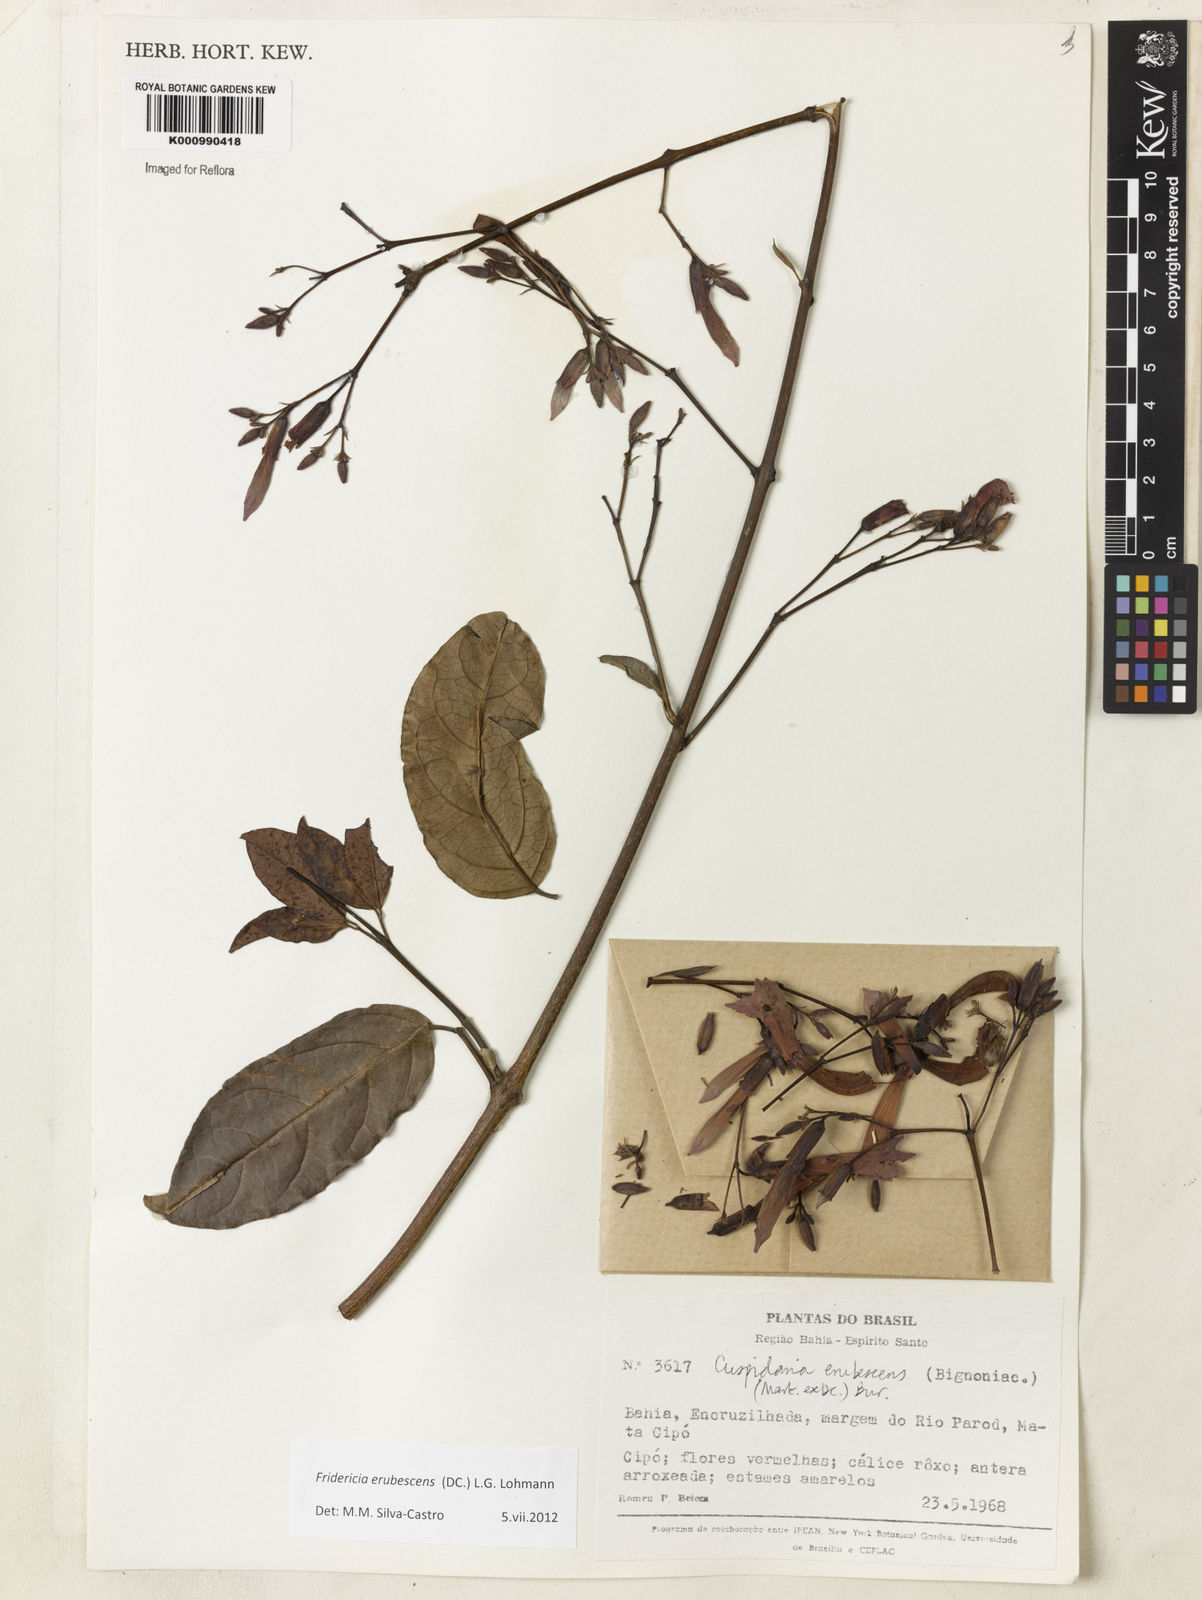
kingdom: Plantae
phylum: Tracheophyta
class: Magnoliopsida
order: Lamiales
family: Bignoniaceae
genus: Fridericia
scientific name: Fridericia erubescens
